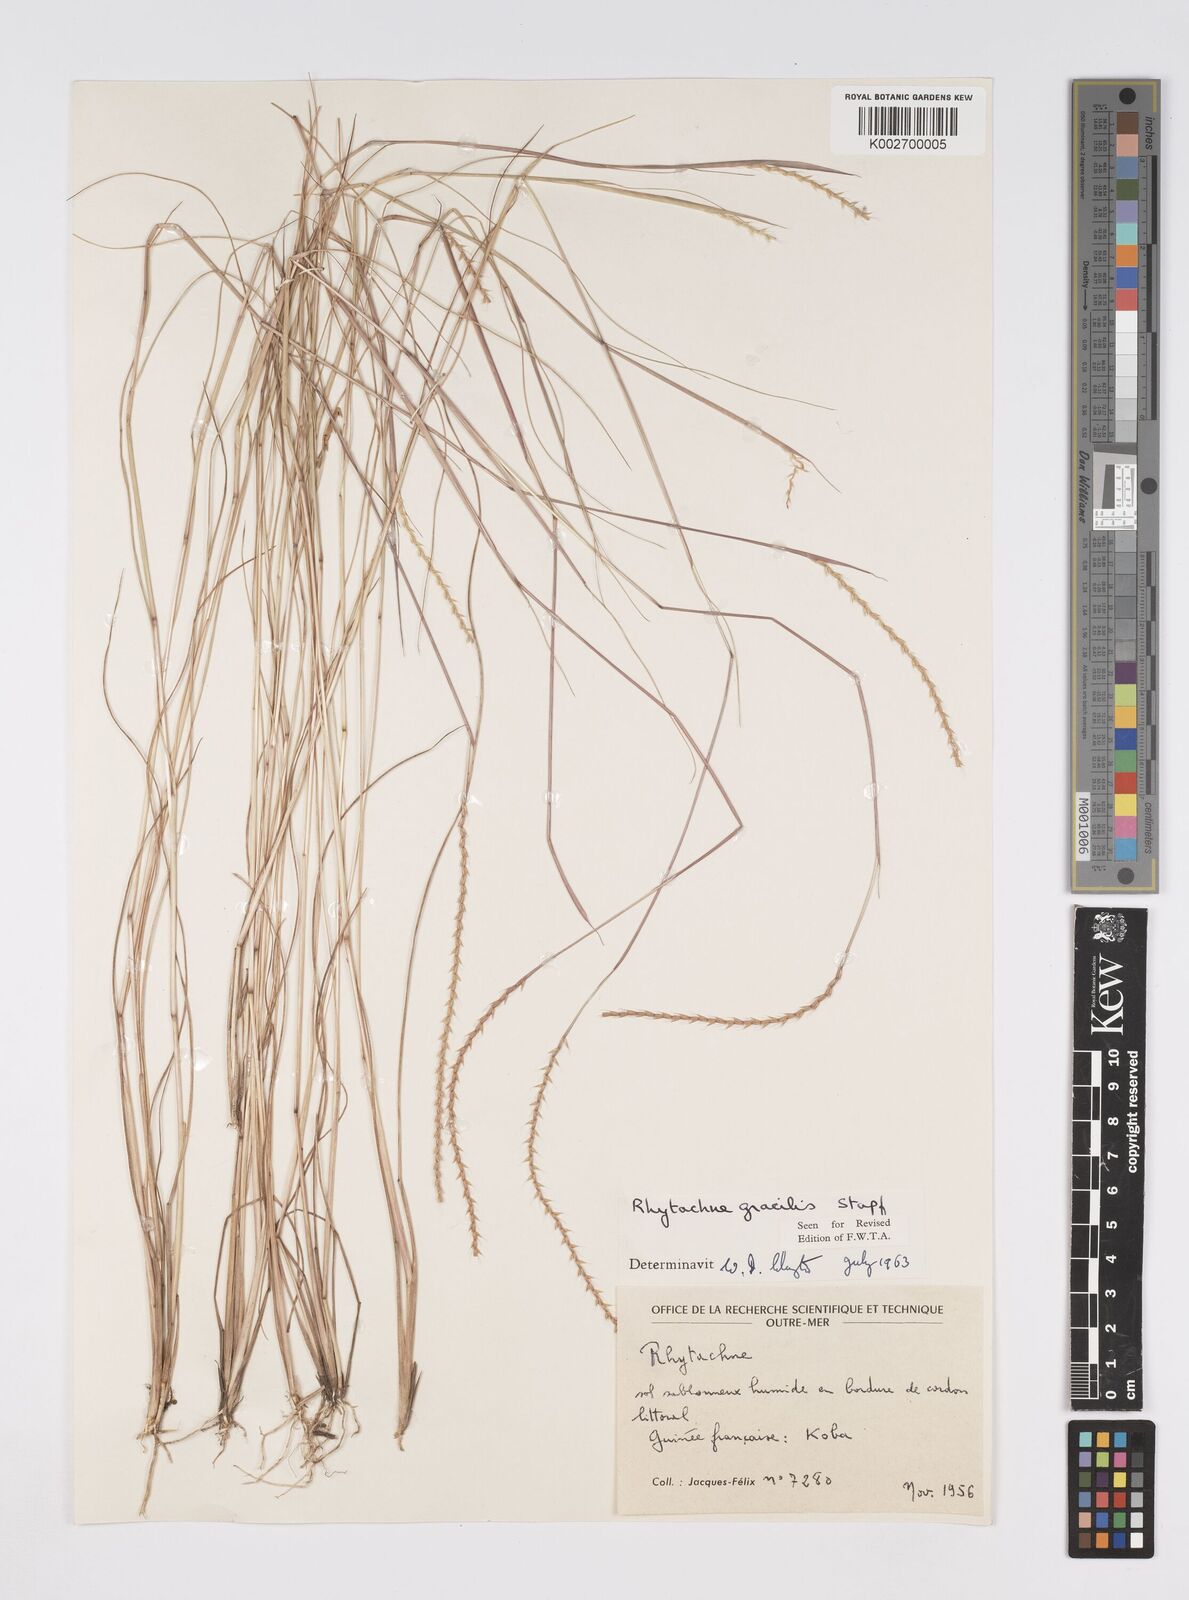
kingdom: Plantae
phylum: Tracheophyta
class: Liliopsida
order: Poales
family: Poaceae
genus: Rhytachne
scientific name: Rhytachne gracilis
